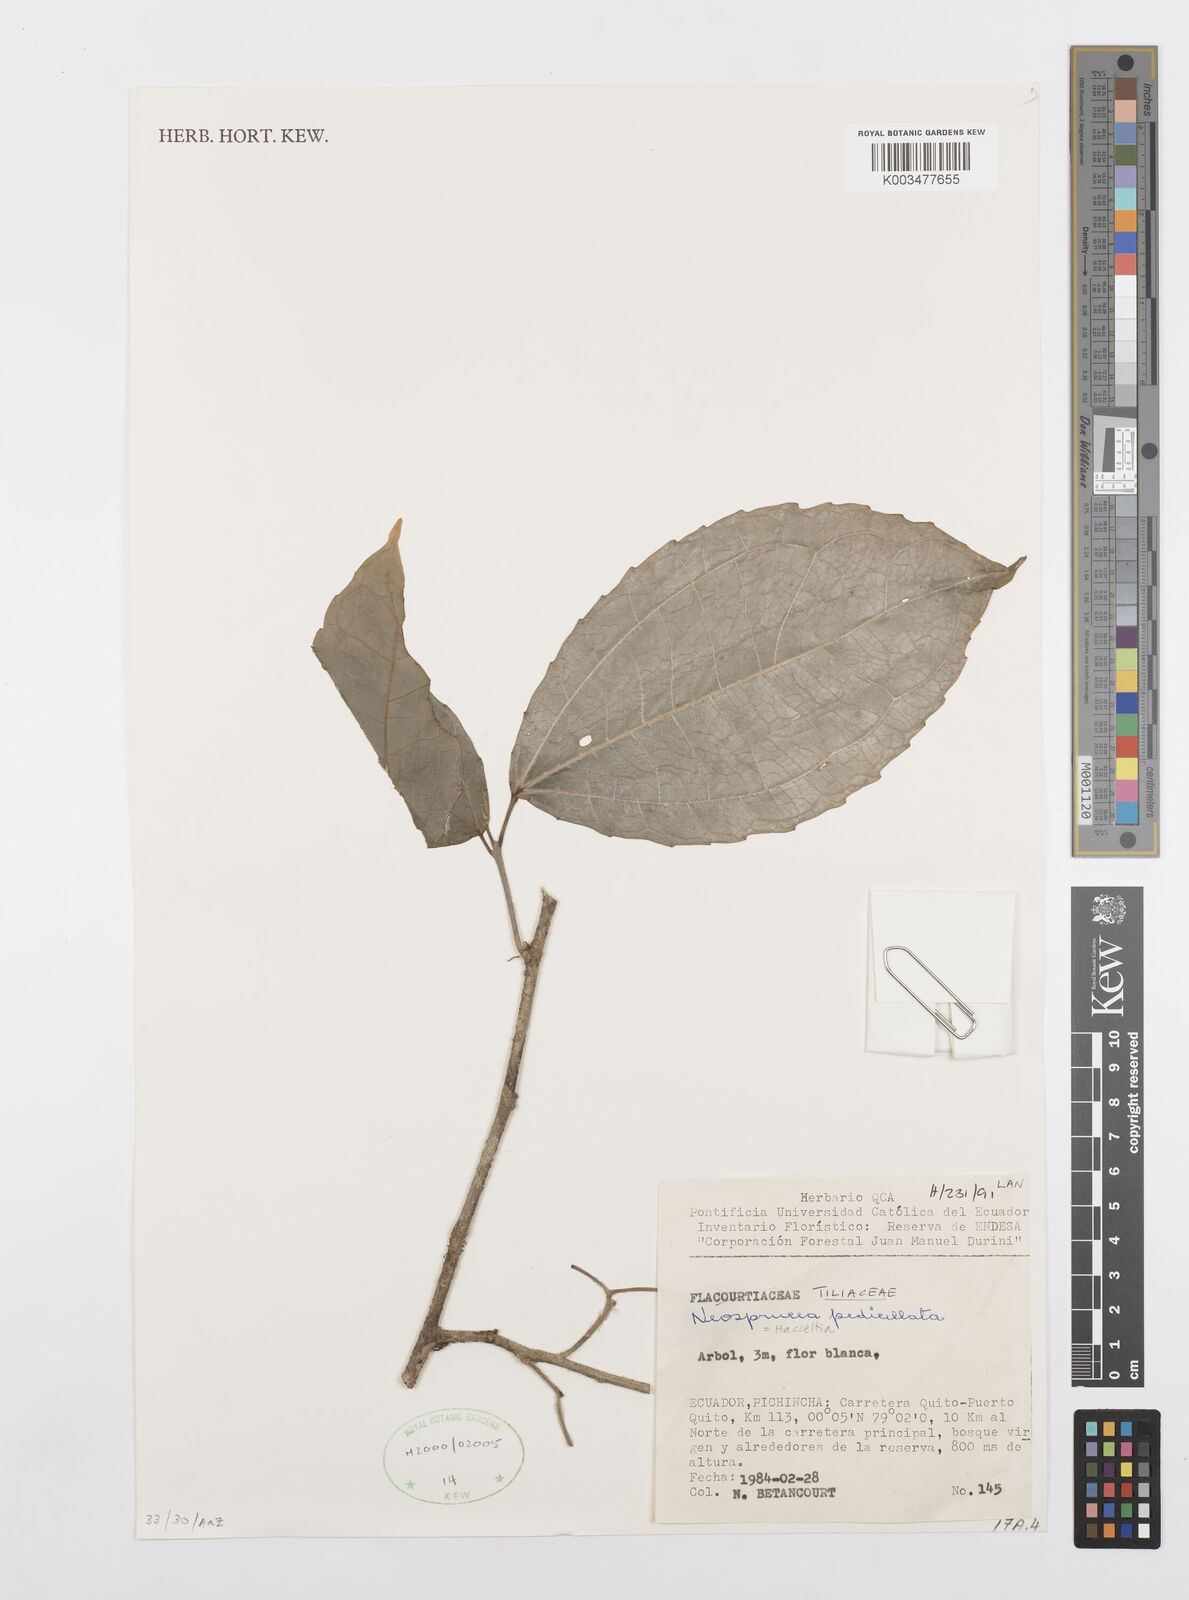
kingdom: Plantae
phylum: Tracheophyta
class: Magnoliopsida
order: Malpighiales
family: Salicaceae
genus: Neosprucea
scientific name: Neosprucea pedicellata
